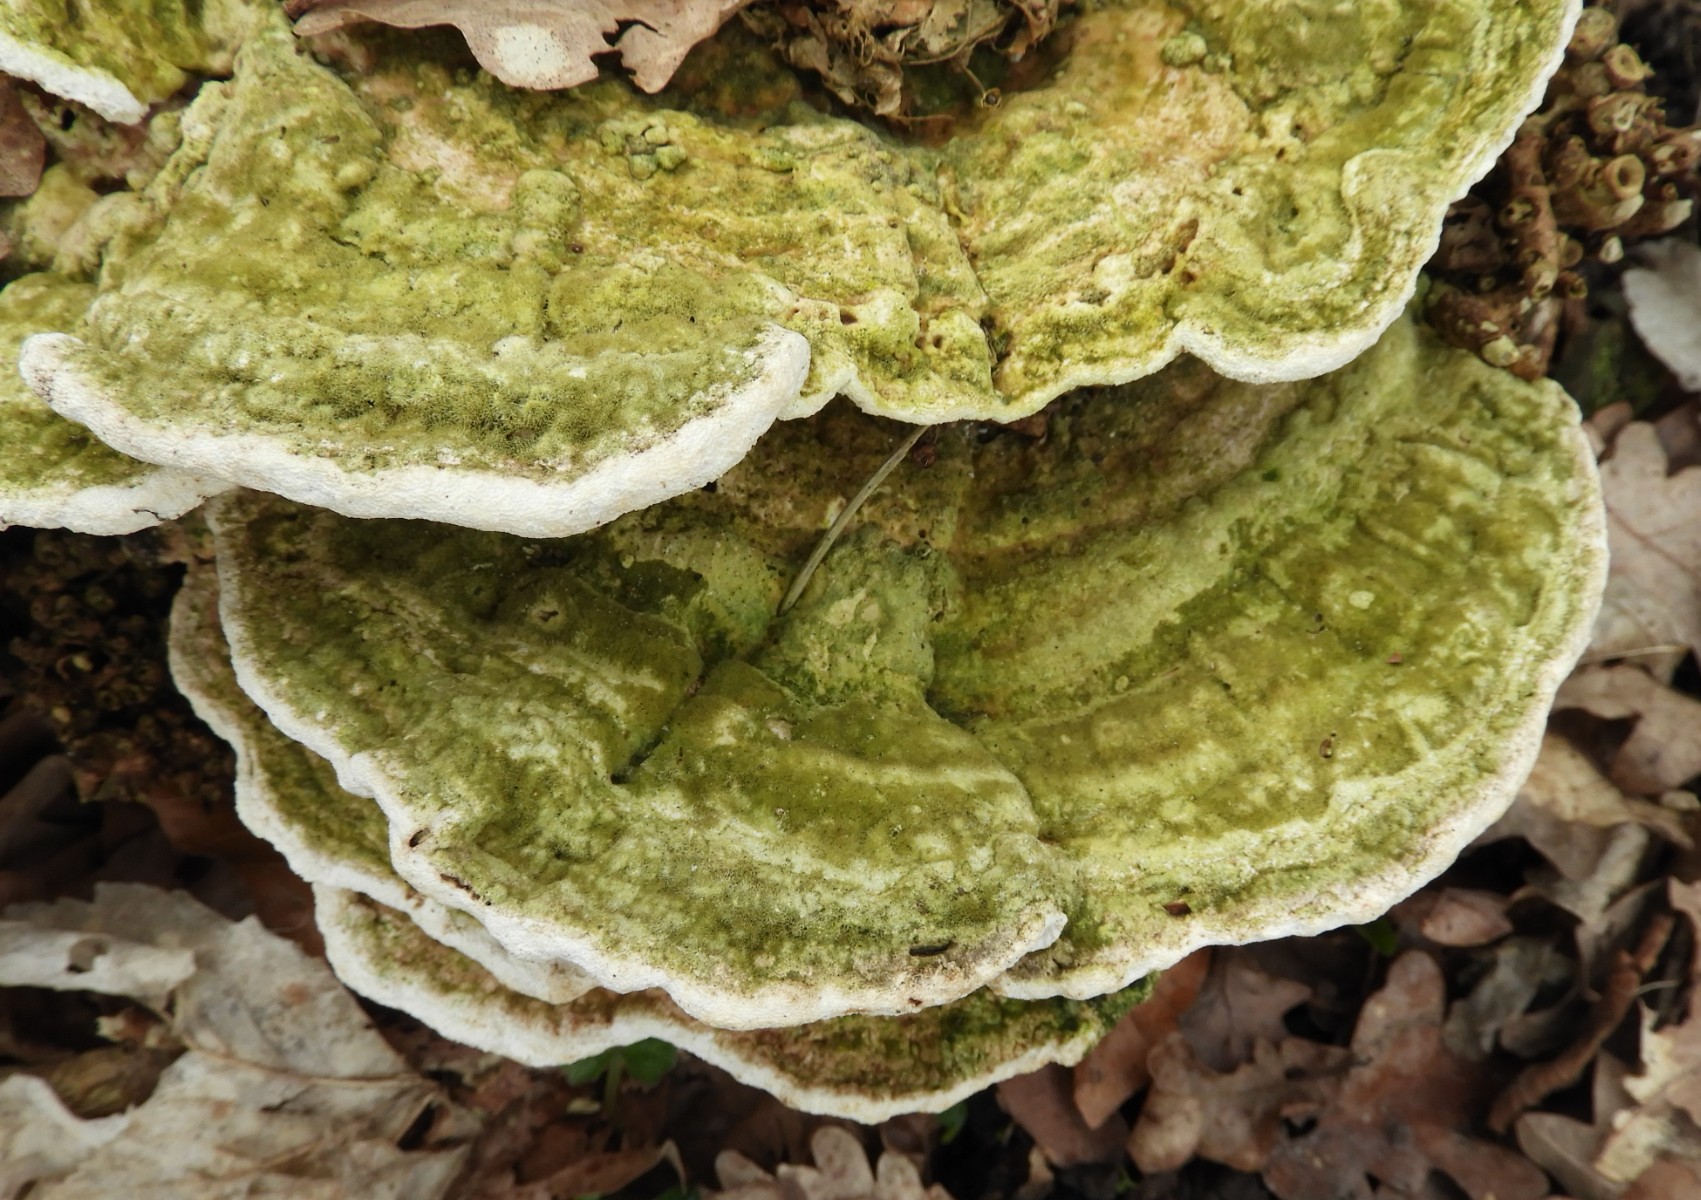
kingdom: Fungi
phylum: Basidiomycota
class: Agaricomycetes
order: Polyporales
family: Polyporaceae
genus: Trametes
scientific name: Trametes gibbosa
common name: puklet læderporesvamp
